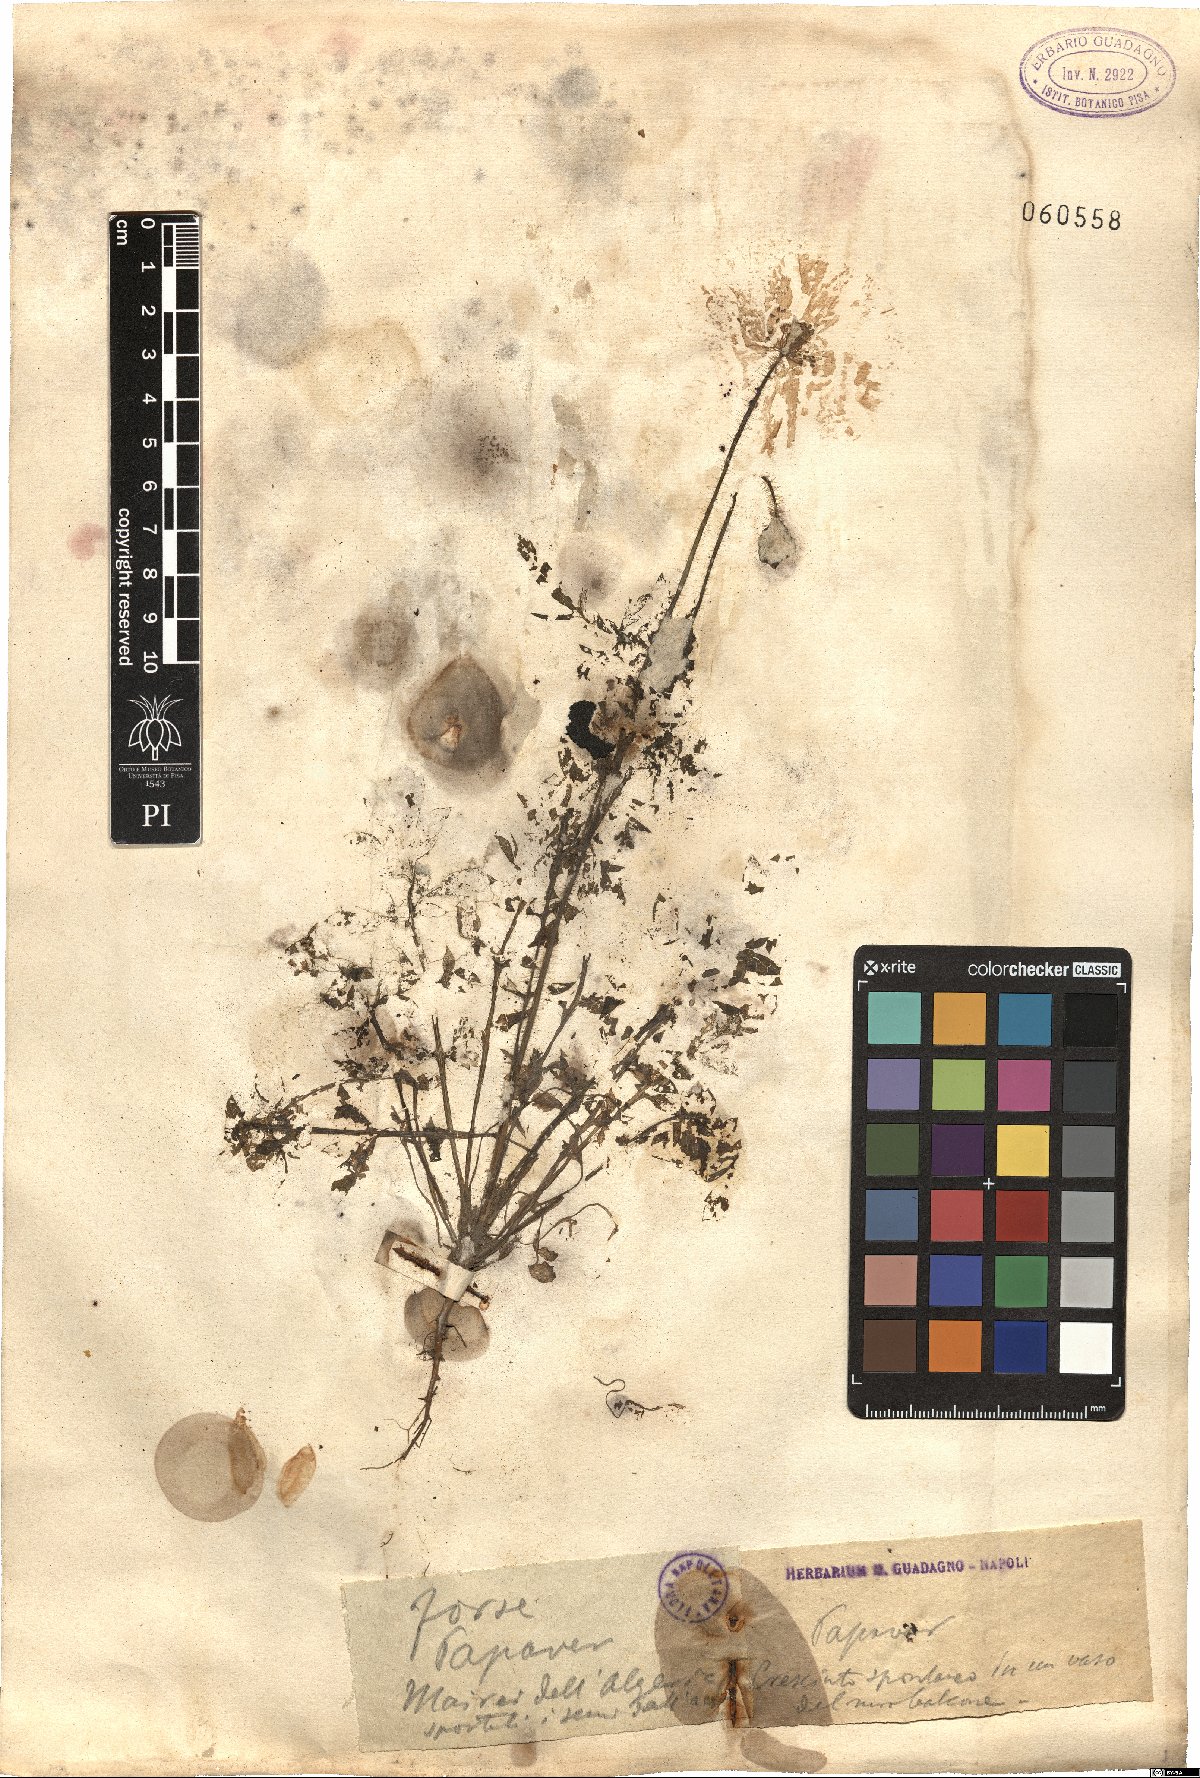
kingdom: Plantae
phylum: Tracheophyta
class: Magnoliopsida
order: Ranunculales
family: Papaveraceae
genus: Papaver
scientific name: Papaver
